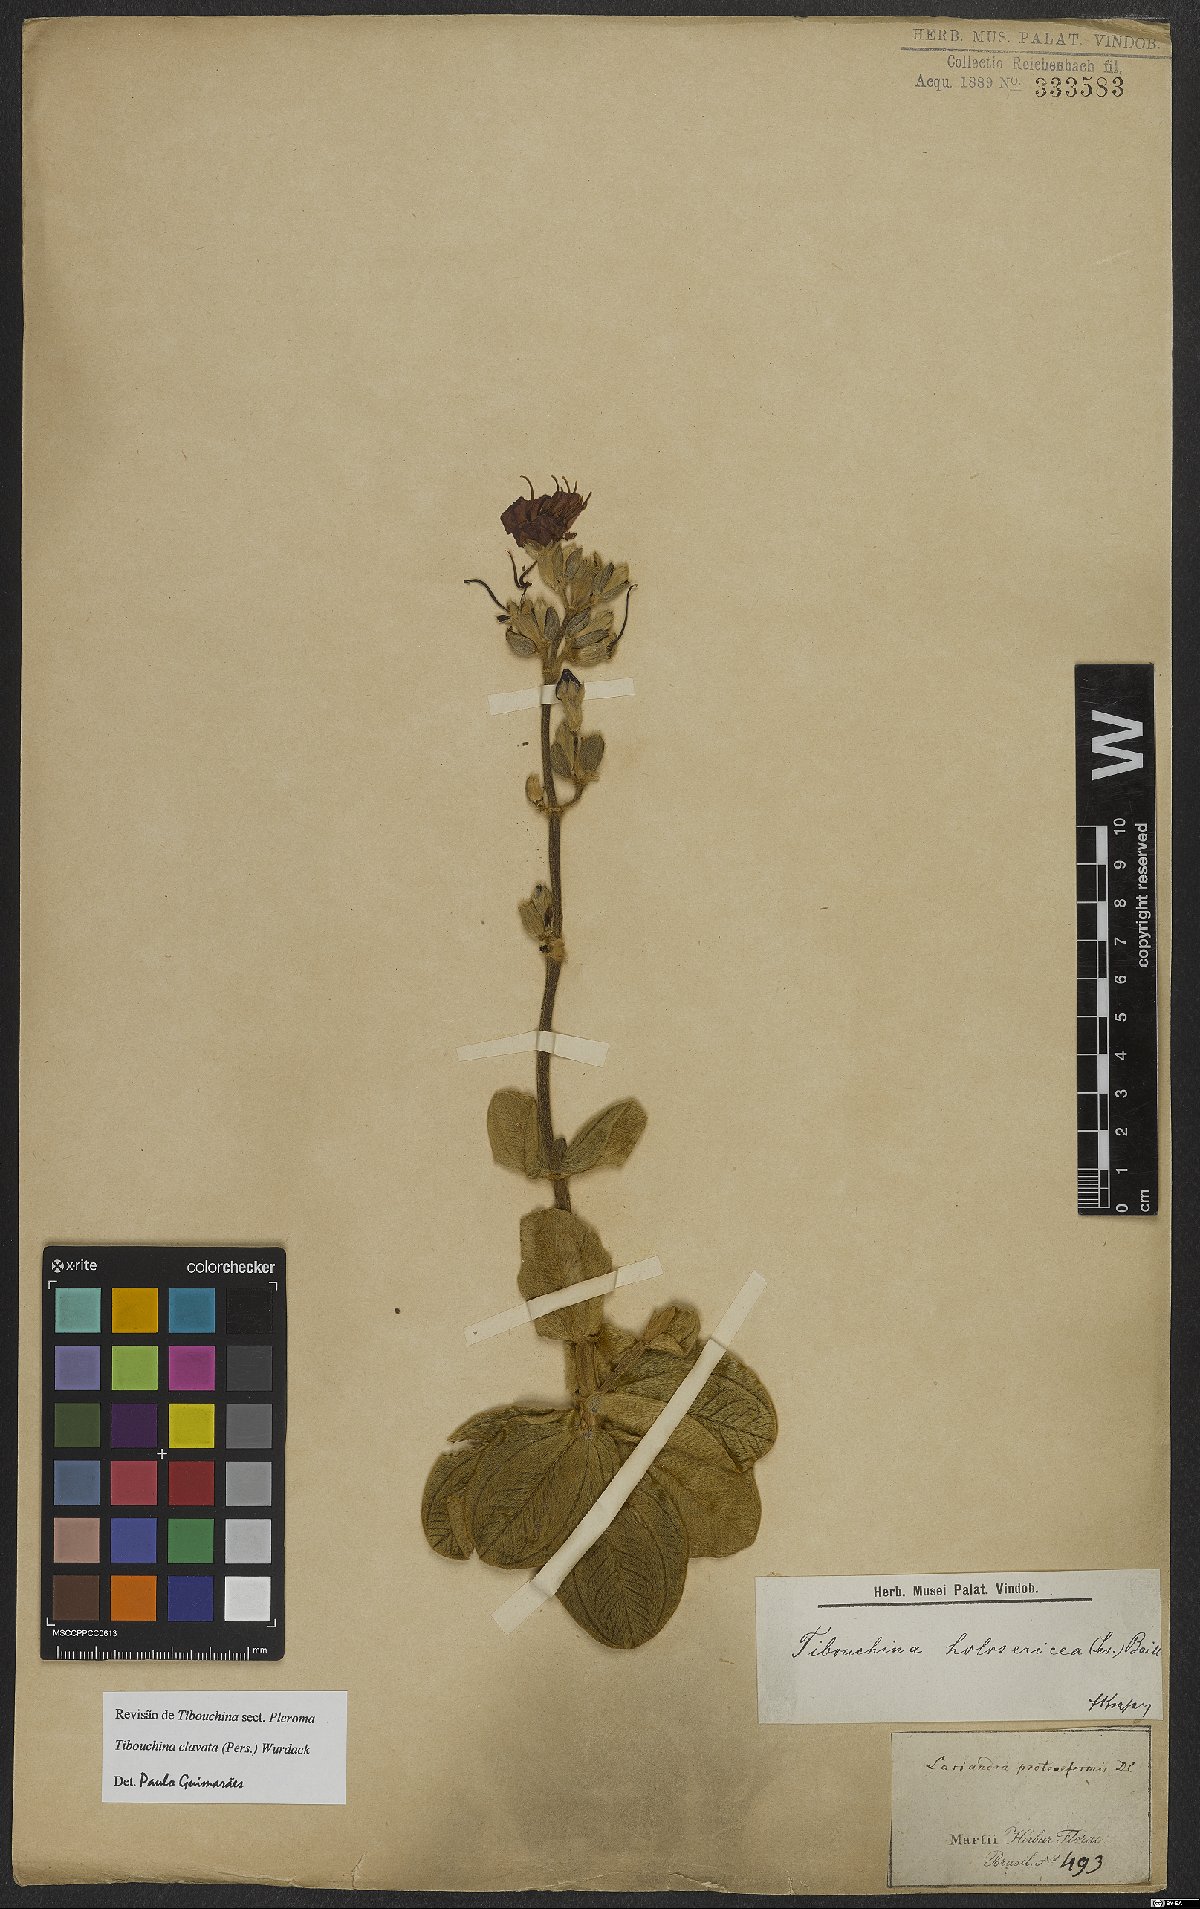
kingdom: Plantae
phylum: Tracheophyta
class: Magnoliopsida
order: Myrtales
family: Melastomataceae
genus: Pleroma
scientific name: Pleroma clavatum
